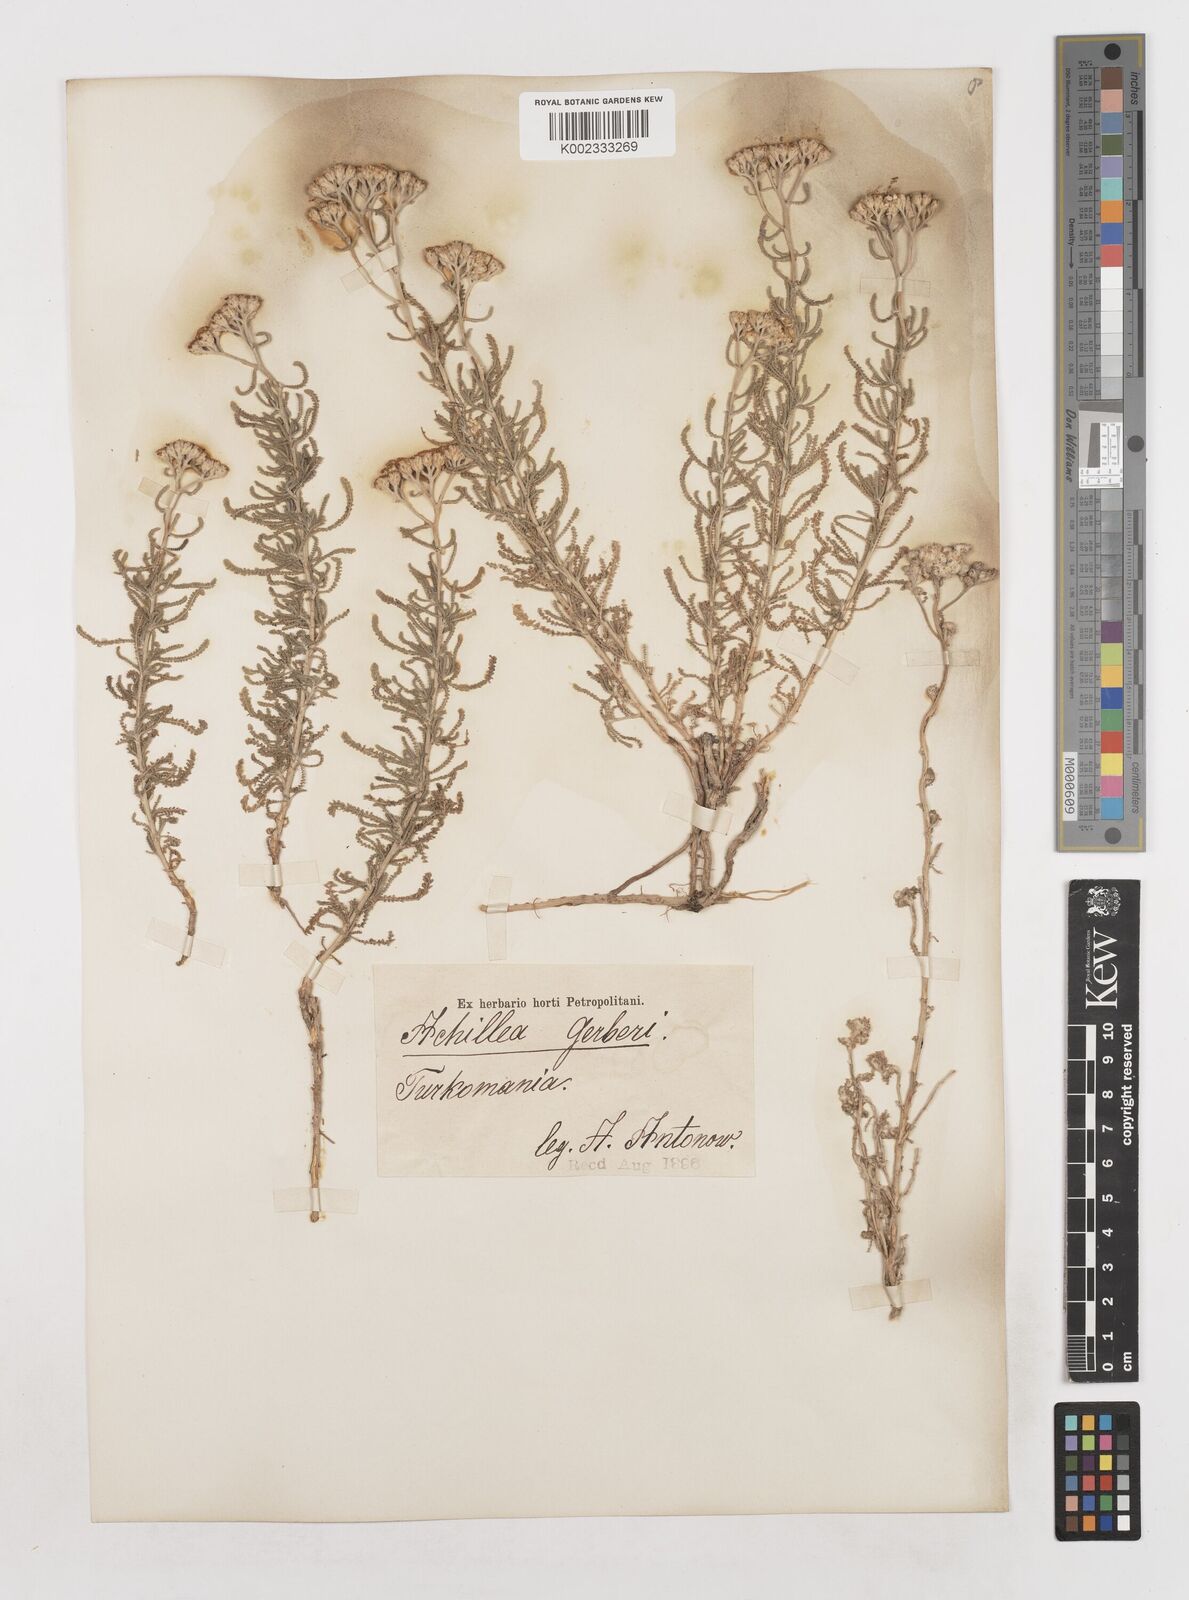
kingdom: Plantae
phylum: Tracheophyta
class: Magnoliopsida
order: Asterales
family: Asteraceae
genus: Achillea
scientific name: Achillea tenuifolia
